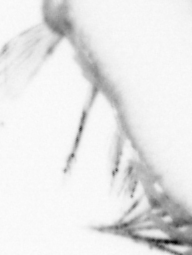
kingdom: Animalia
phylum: Annelida
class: Polychaeta
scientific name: Polychaeta
